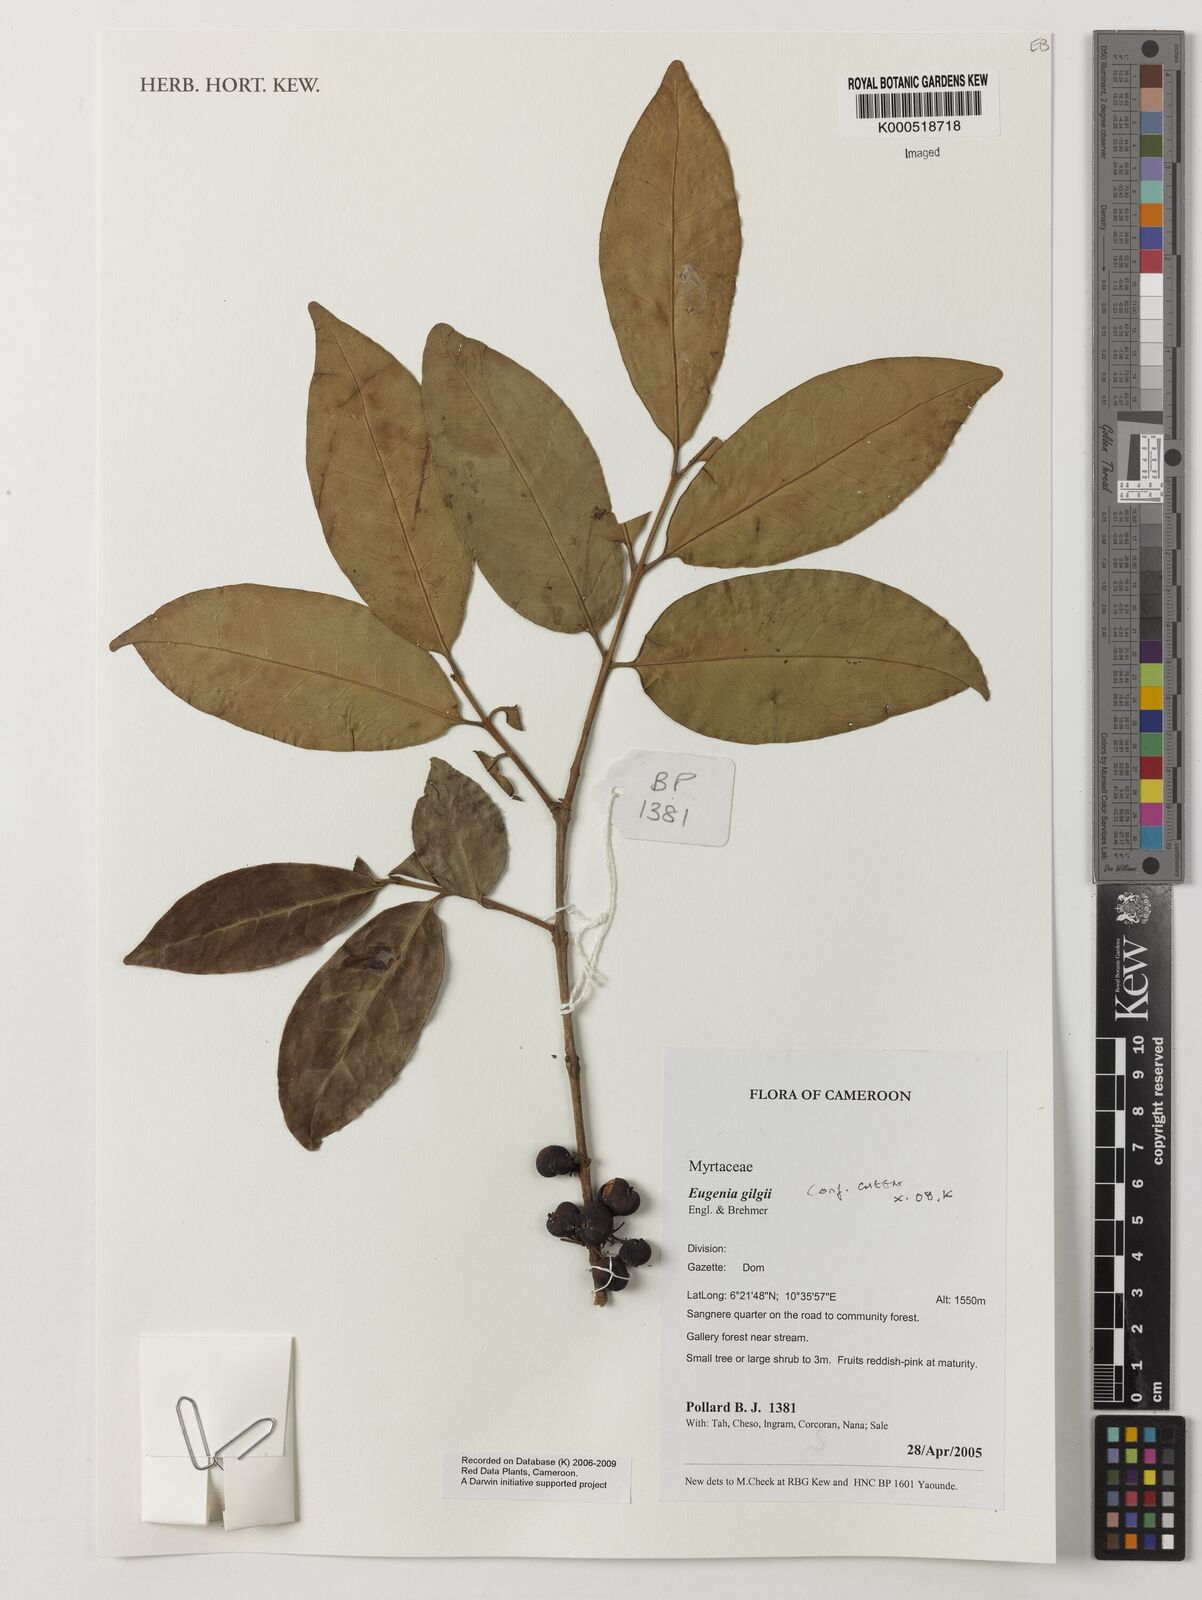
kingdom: Plantae
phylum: Tracheophyta
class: Magnoliopsida
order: Myrtales
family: Myrtaceae
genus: Eugenia
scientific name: Eugenia gilgii
